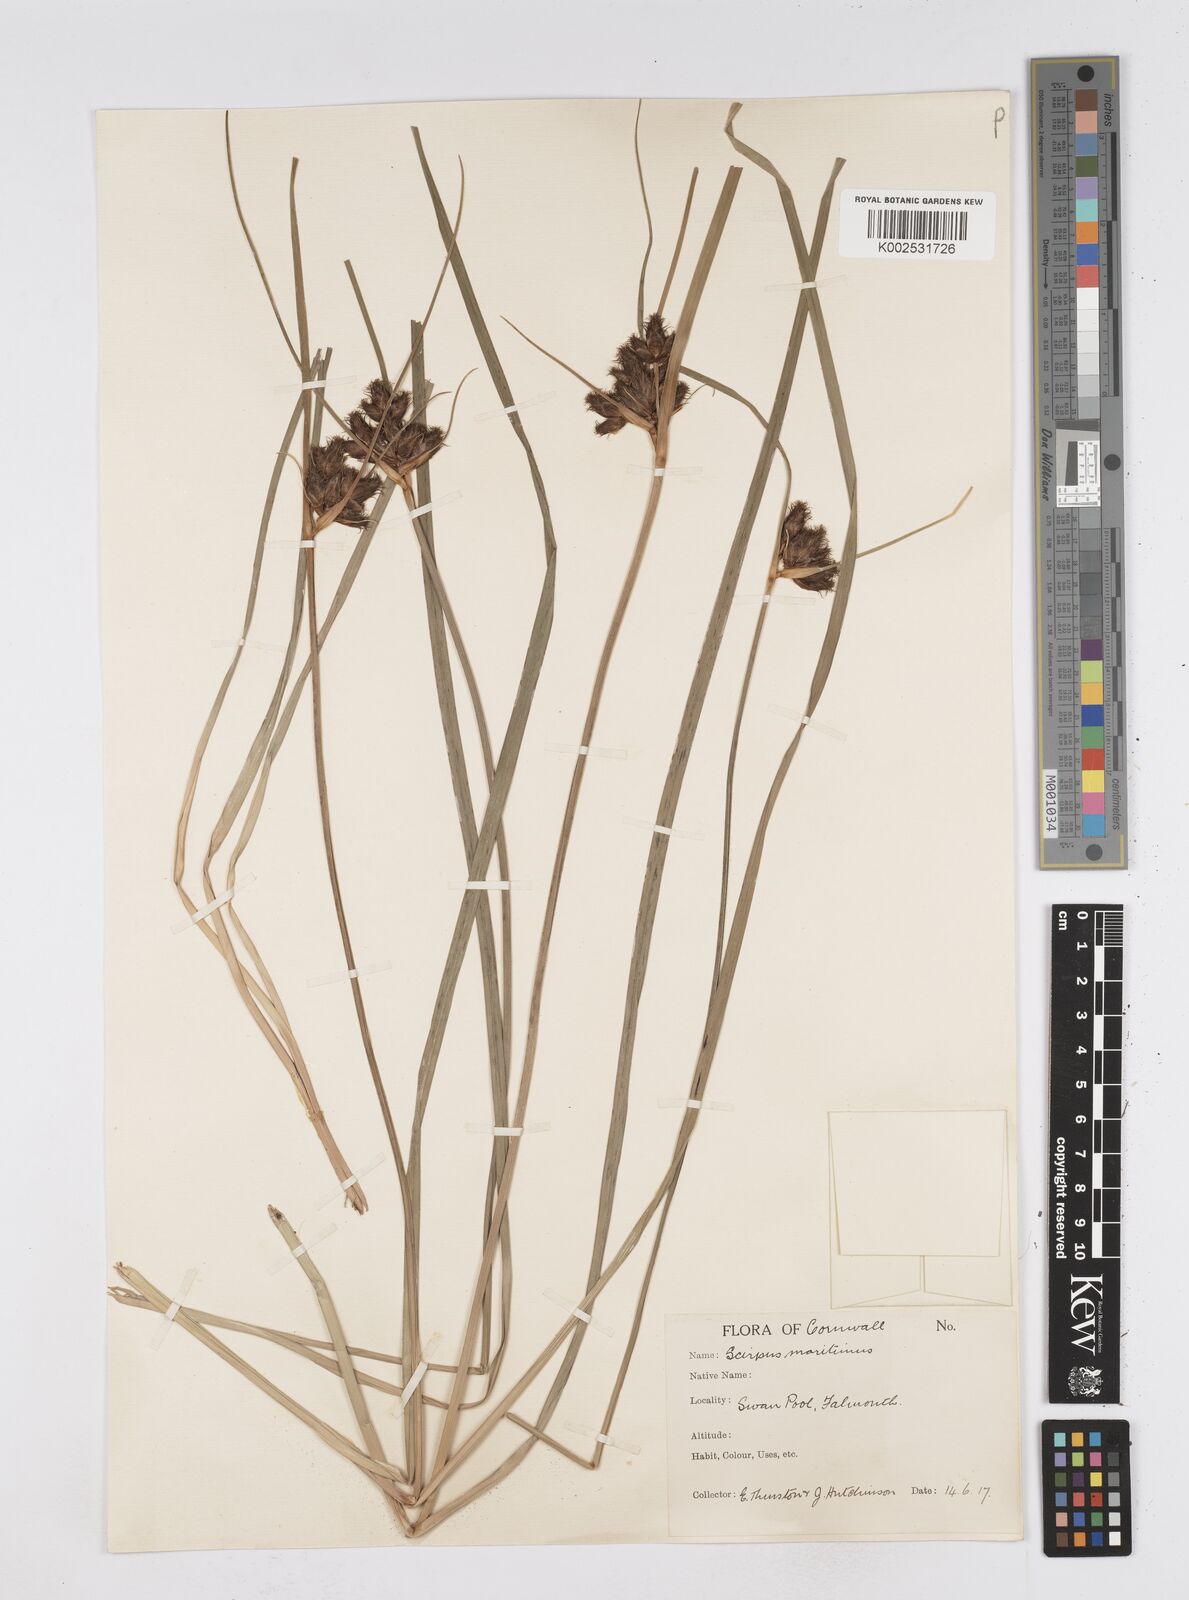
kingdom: Plantae
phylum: Tracheophyta
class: Liliopsida
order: Poales
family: Cyperaceae
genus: Bolboschoenus
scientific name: Bolboschoenus maritimus
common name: Sea club-rush
